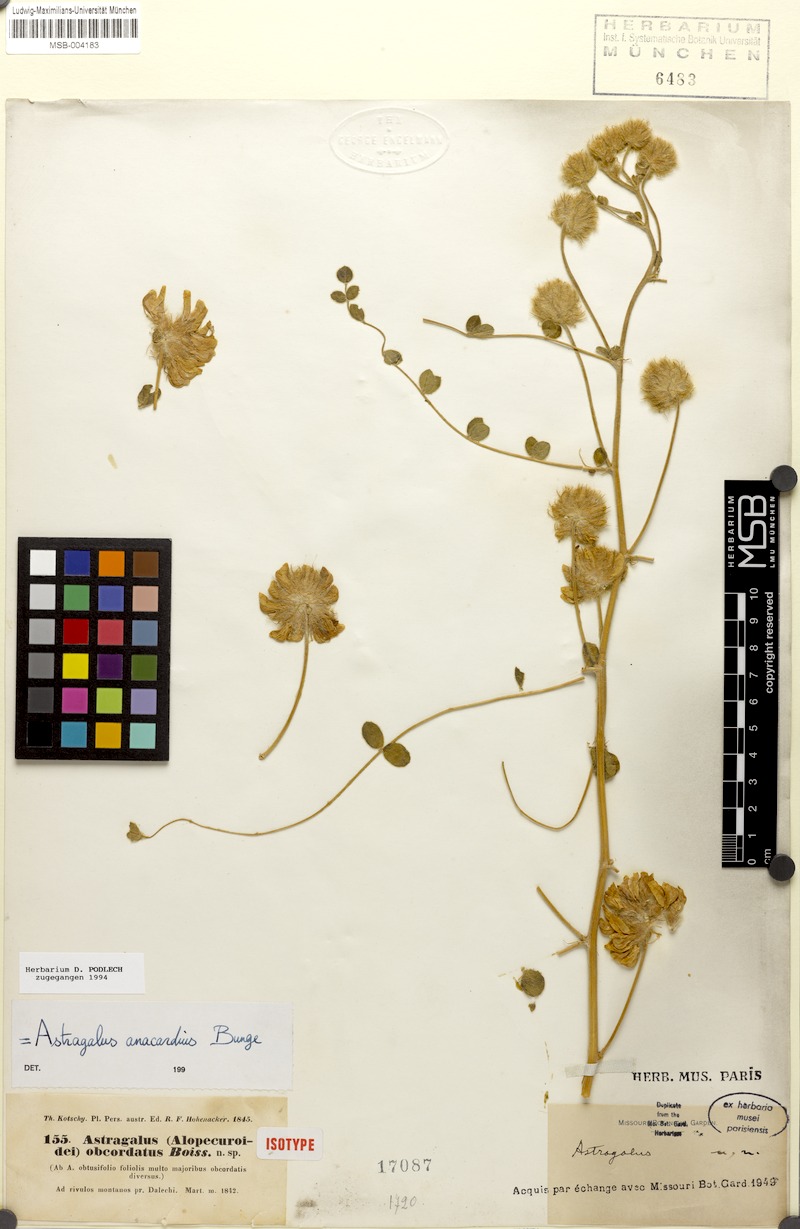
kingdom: Plantae
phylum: Tracheophyta
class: Magnoliopsida
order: Fabales
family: Fabaceae
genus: Astragalus
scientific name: Astragalus obtusifolius
